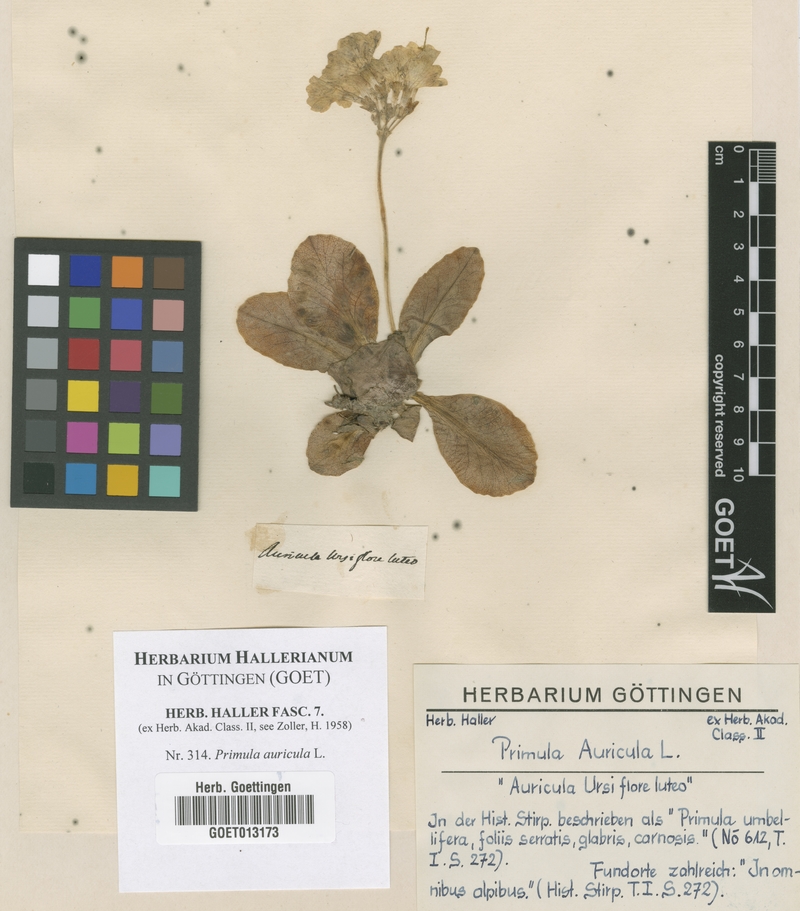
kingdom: Plantae
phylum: Tracheophyta
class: Magnoliopsida
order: Ericales
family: Primulaceae
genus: Primula
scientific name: Primula auricula
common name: Auricula
